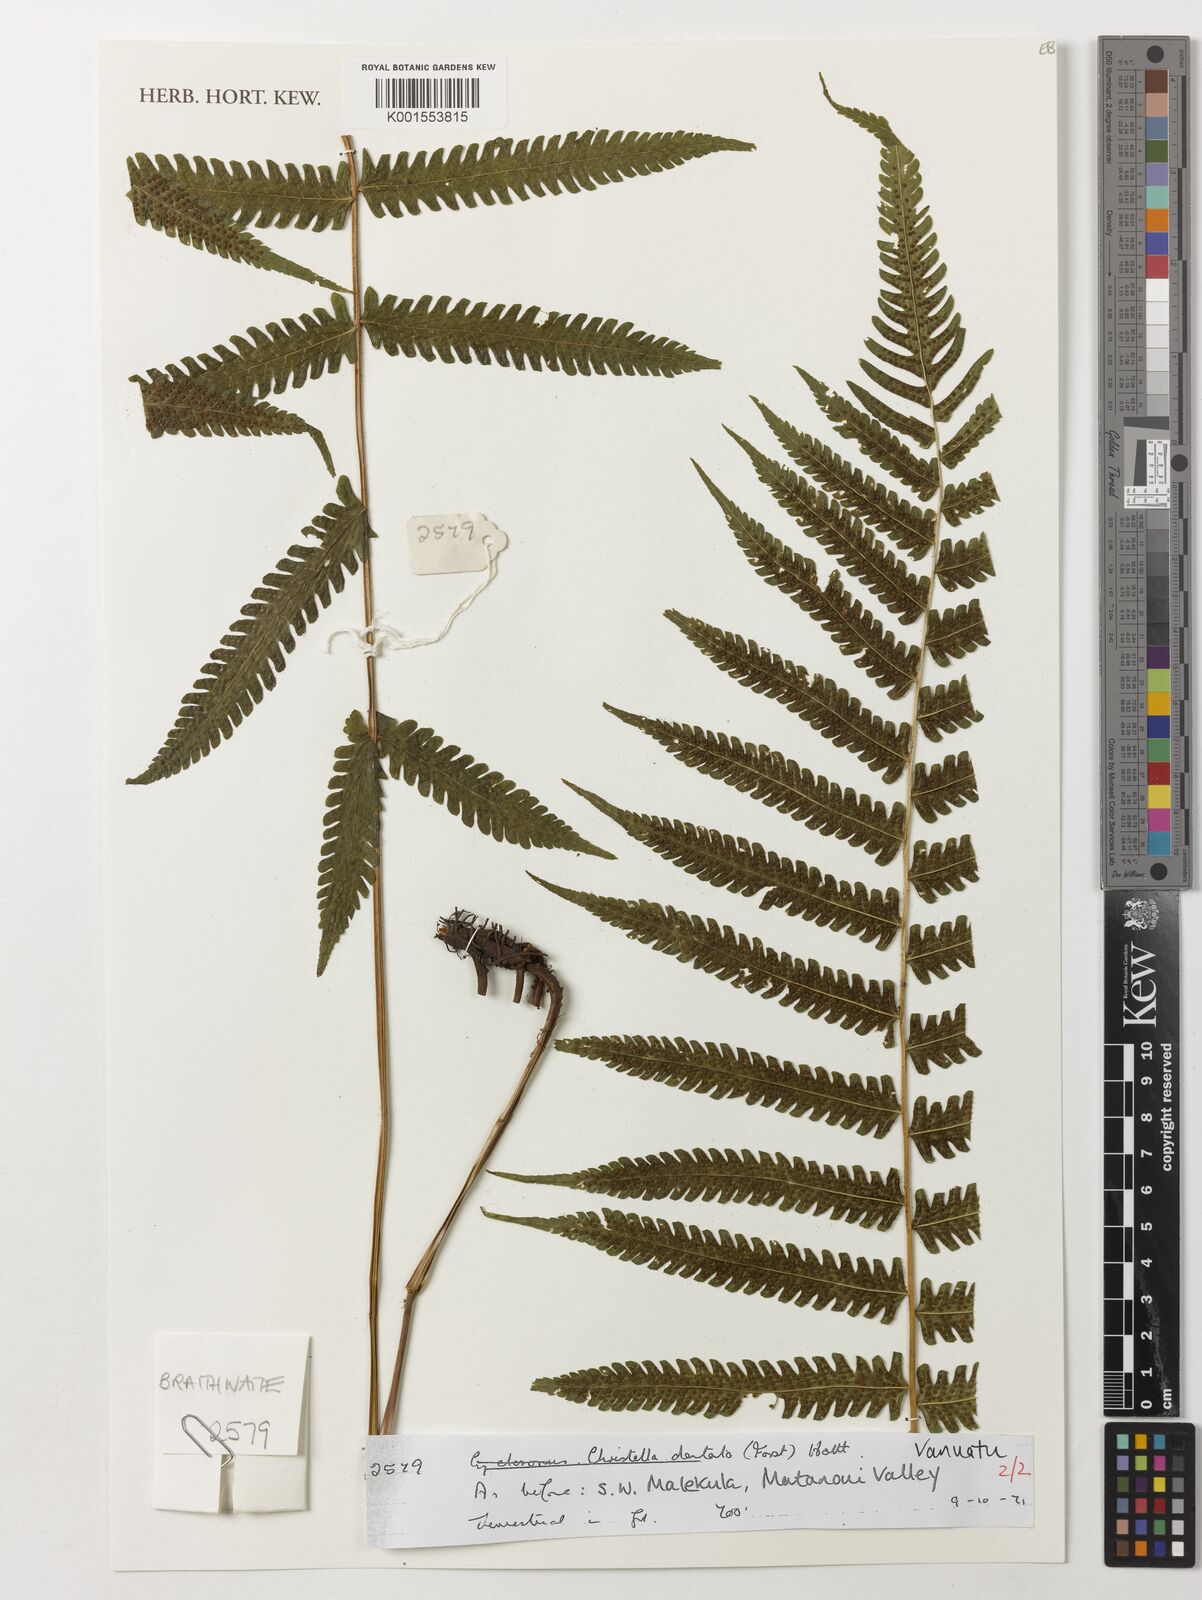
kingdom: Plantae
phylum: Tracheophyta
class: Polypodiopsida
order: Polypodiales
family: Thelypteridaceae
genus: Christella
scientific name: Christella dentata
